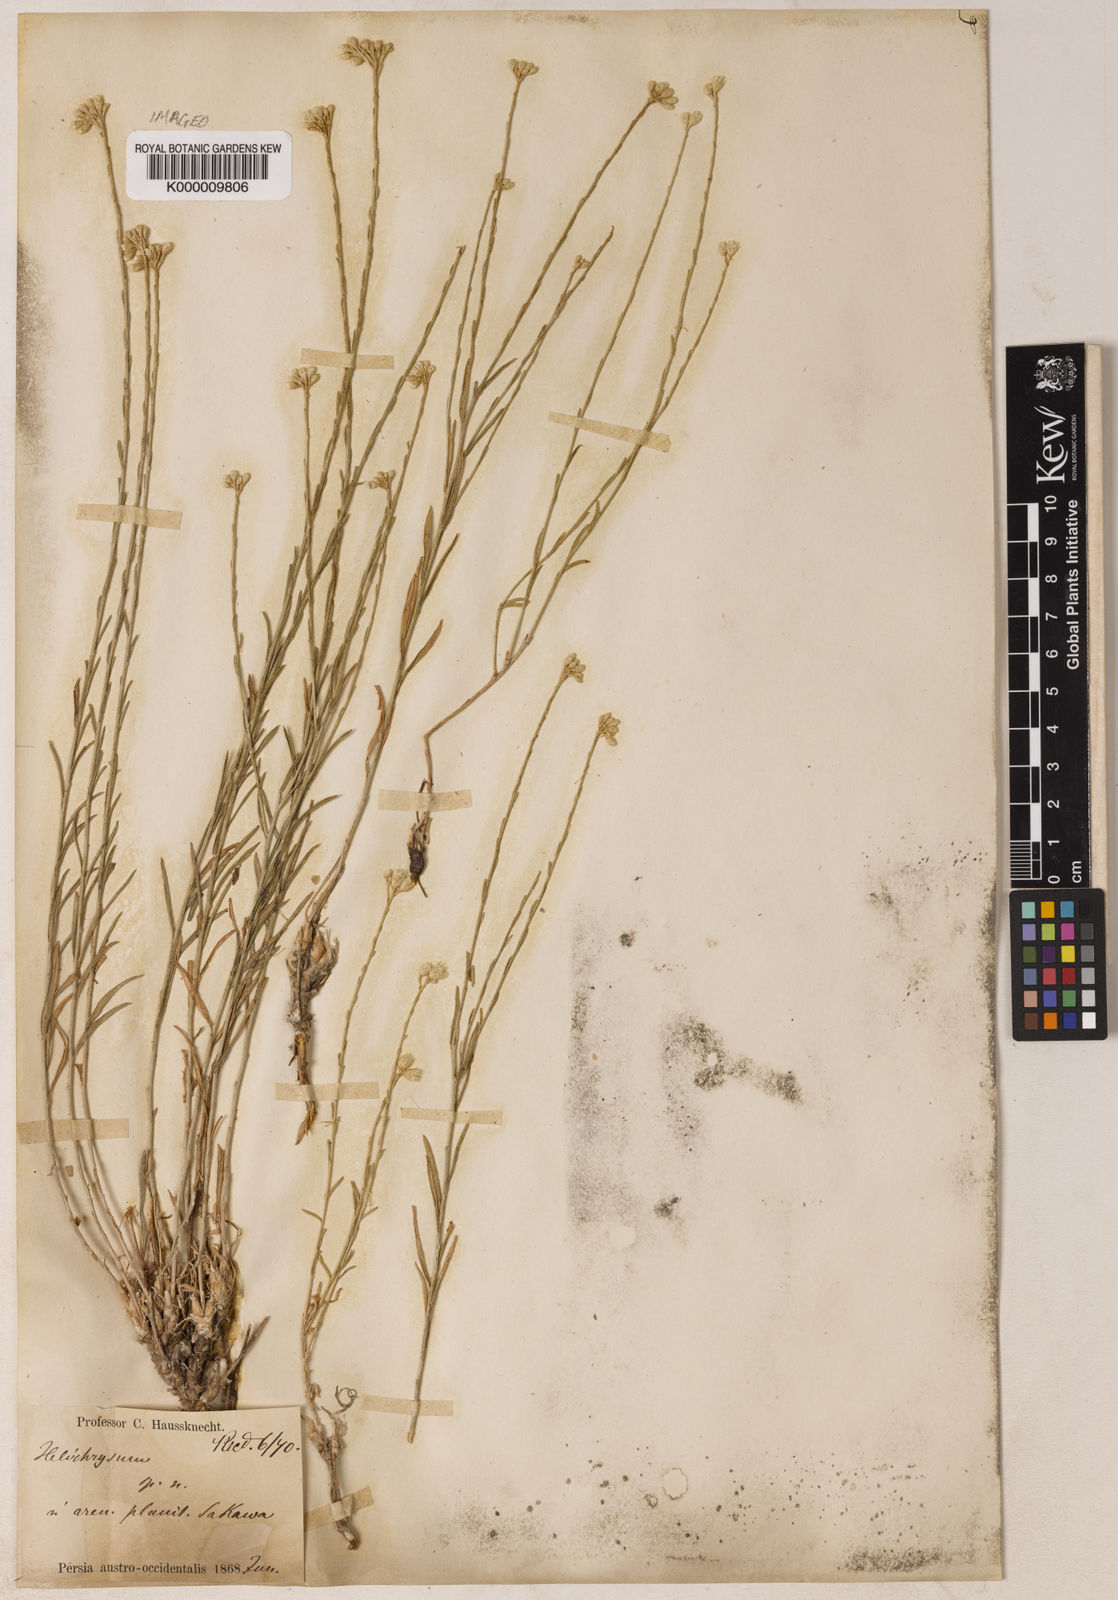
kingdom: Plantae
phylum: Tracheophyta
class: Magnoliopsida
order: Asterales
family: Asteraceae
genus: Helichrysum
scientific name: Helichrysum artemisioides
